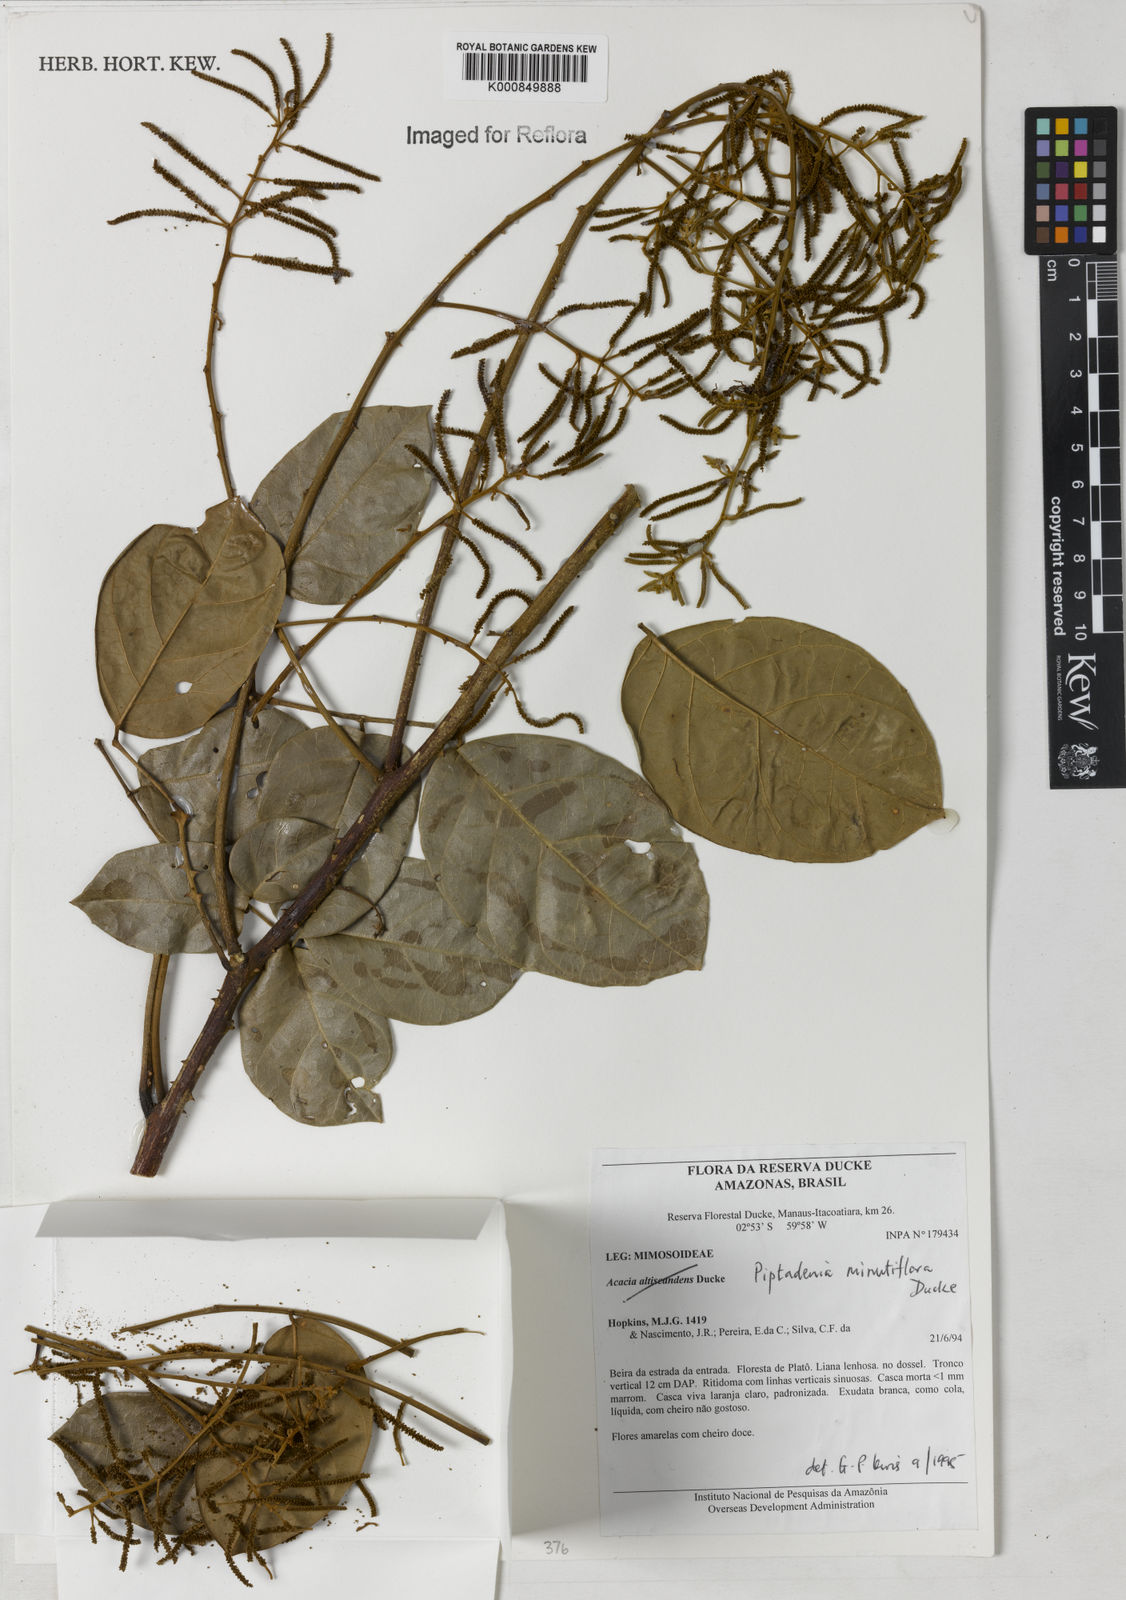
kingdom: Plantae
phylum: Tracheophyta
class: Magnoliopsida
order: Fabales
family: Fabaceae
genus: Piptadenia
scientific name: Piptadenia minutiflora
